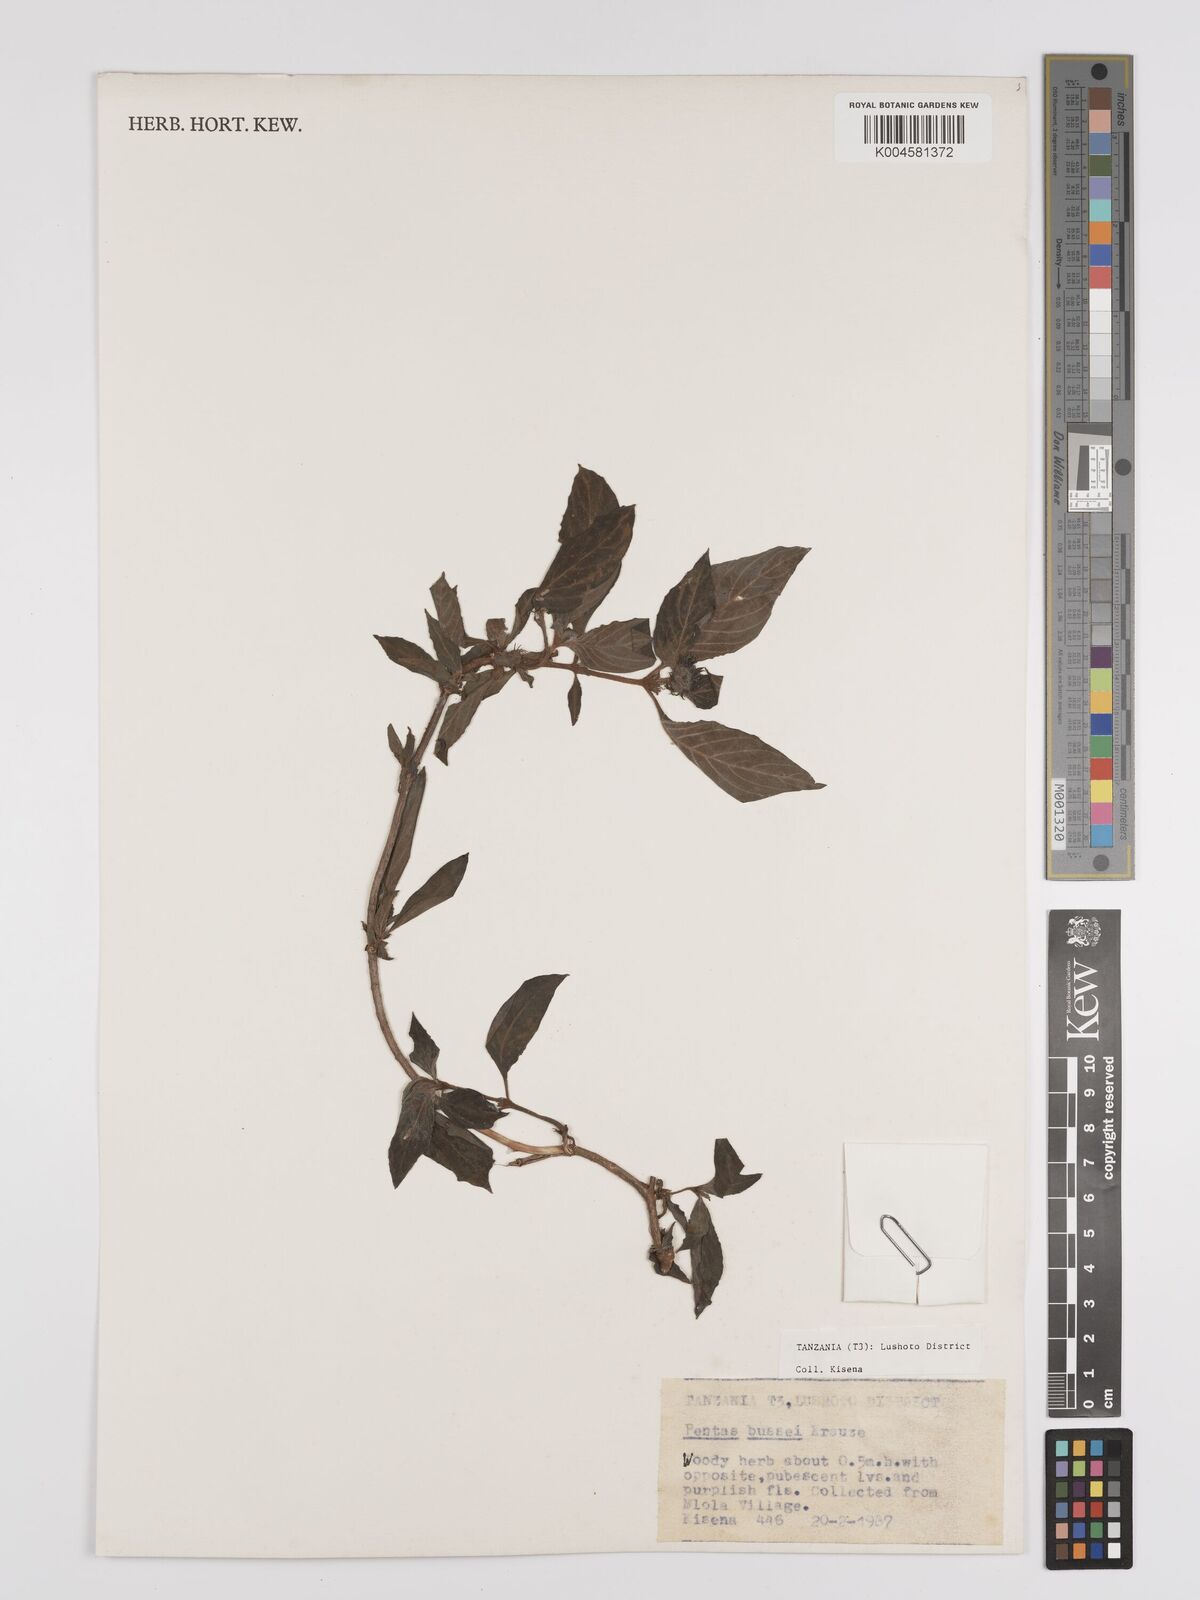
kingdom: Plantae
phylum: Tracheophyta
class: Magnoliopsida
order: Gentianales
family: Rubiaceae
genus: Rhodopentas
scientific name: Rhodopentas bussei
